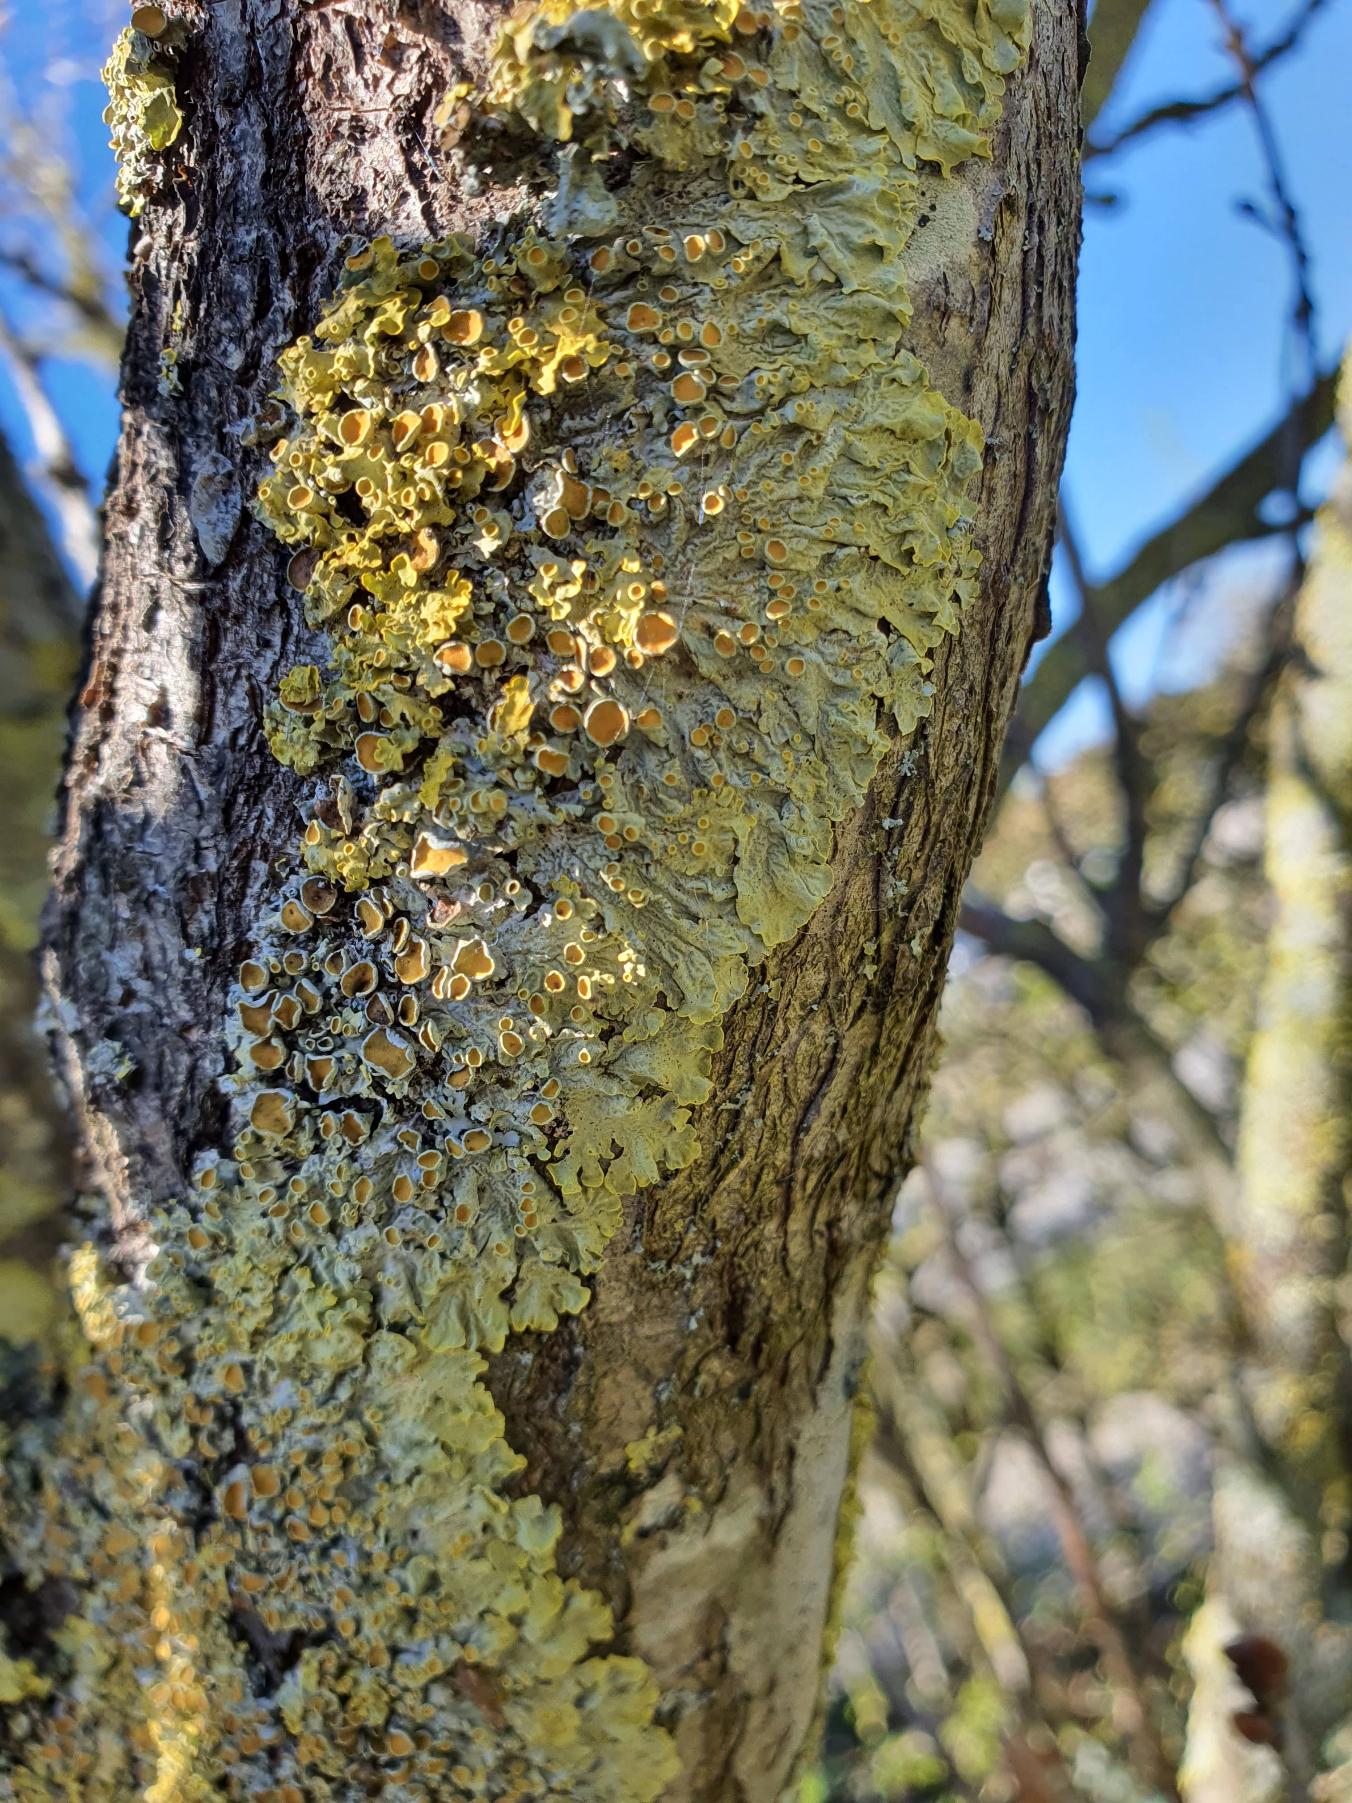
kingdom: Fungi
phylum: Ascomycota
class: Lecanoromycetes
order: Teloschistales
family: Teloschistaceae
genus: Xanthoria
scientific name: Xanthoria parietina
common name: Almindelig væggelav
